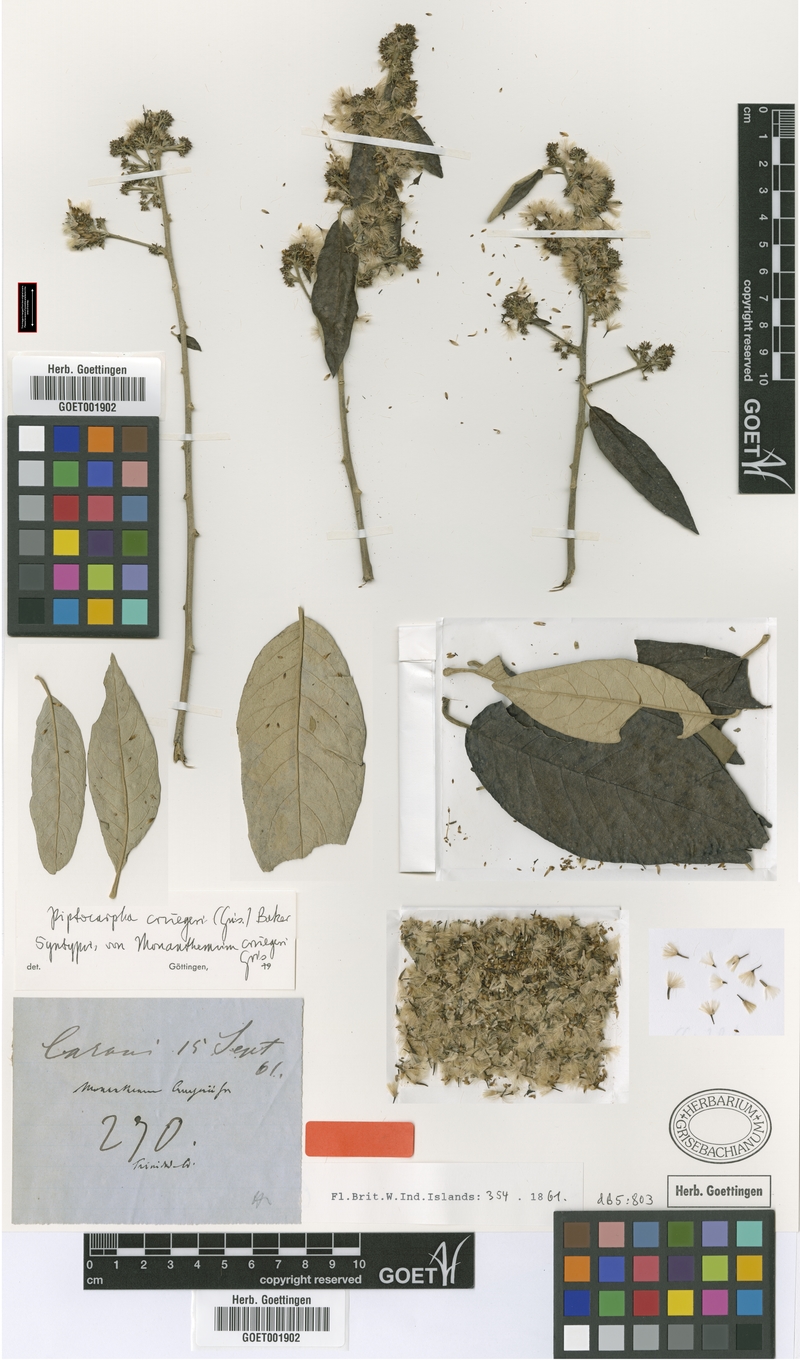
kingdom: Plantae
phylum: Tracheophyta
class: Magnoliopsida
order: Asterales
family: Asteraceae
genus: Piptocarpha
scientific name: Piptocarpha triflora
